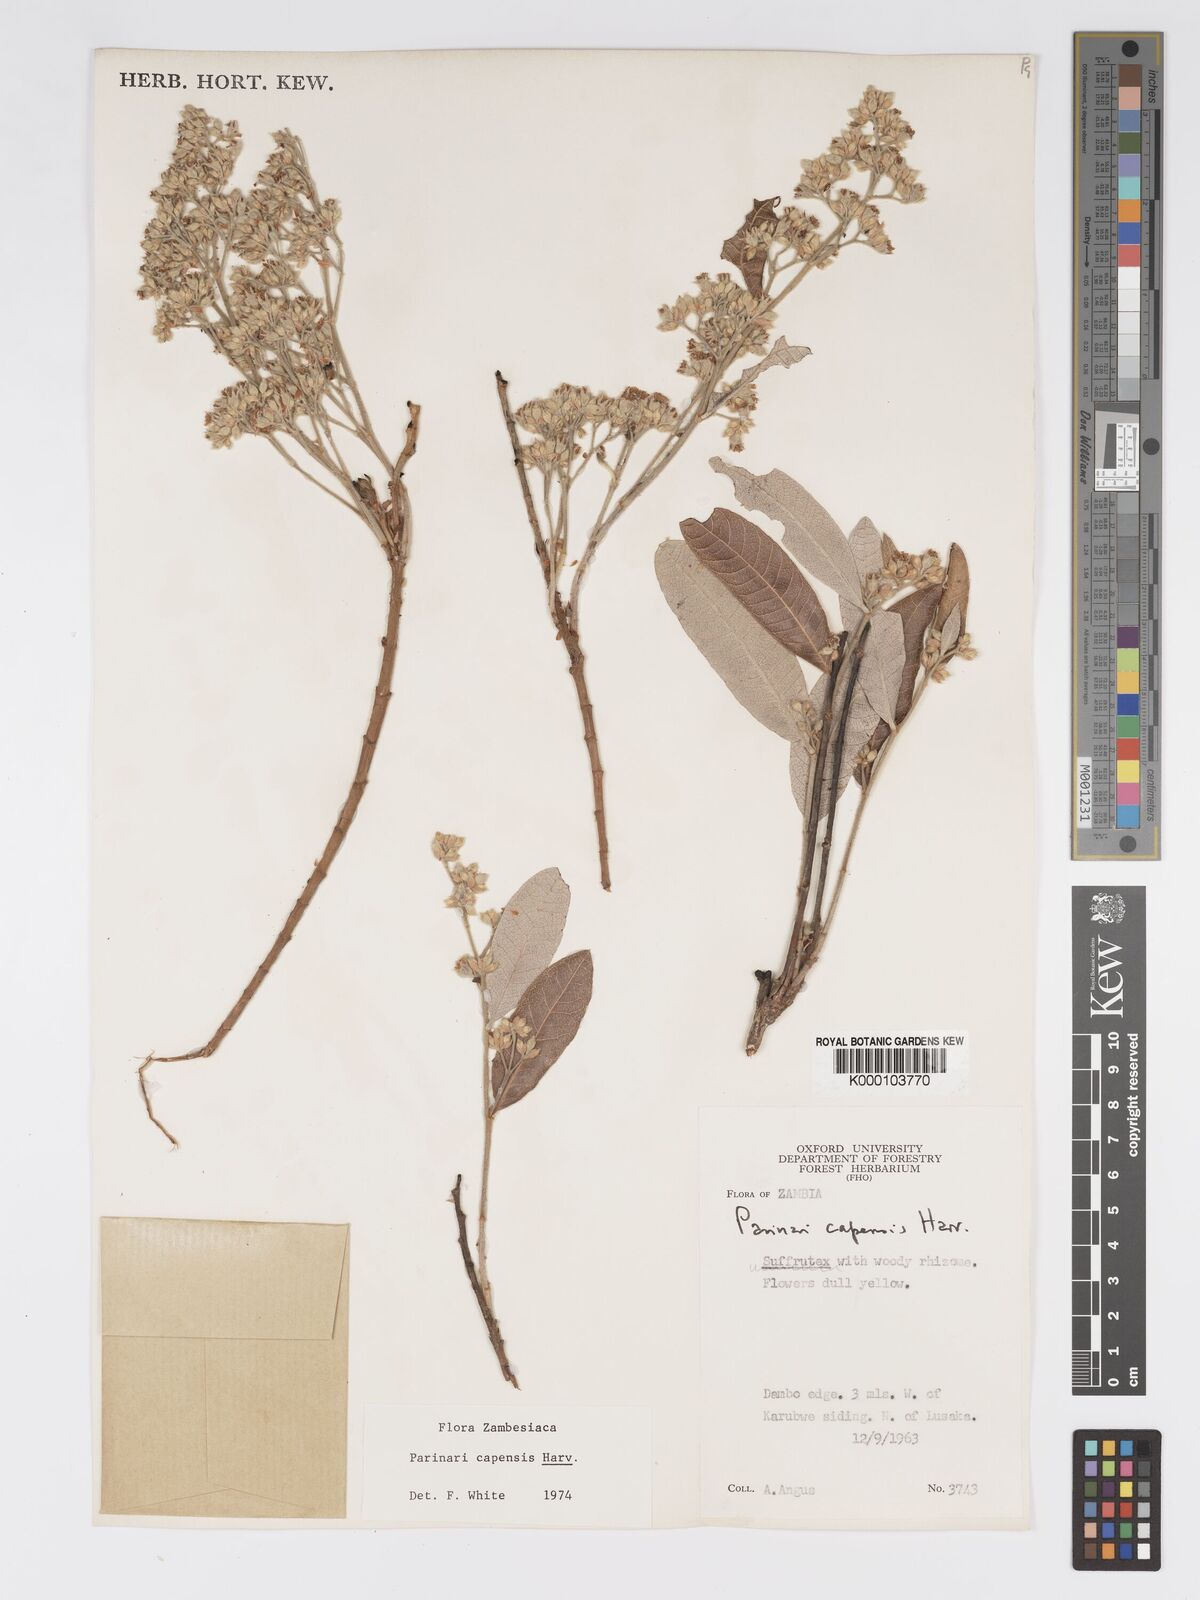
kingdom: Plantae
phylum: Tracheophyta
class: Magnoliopsida
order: Malpighiales
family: Chrysobalanaceae
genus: Parinari
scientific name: Parinari capensis
